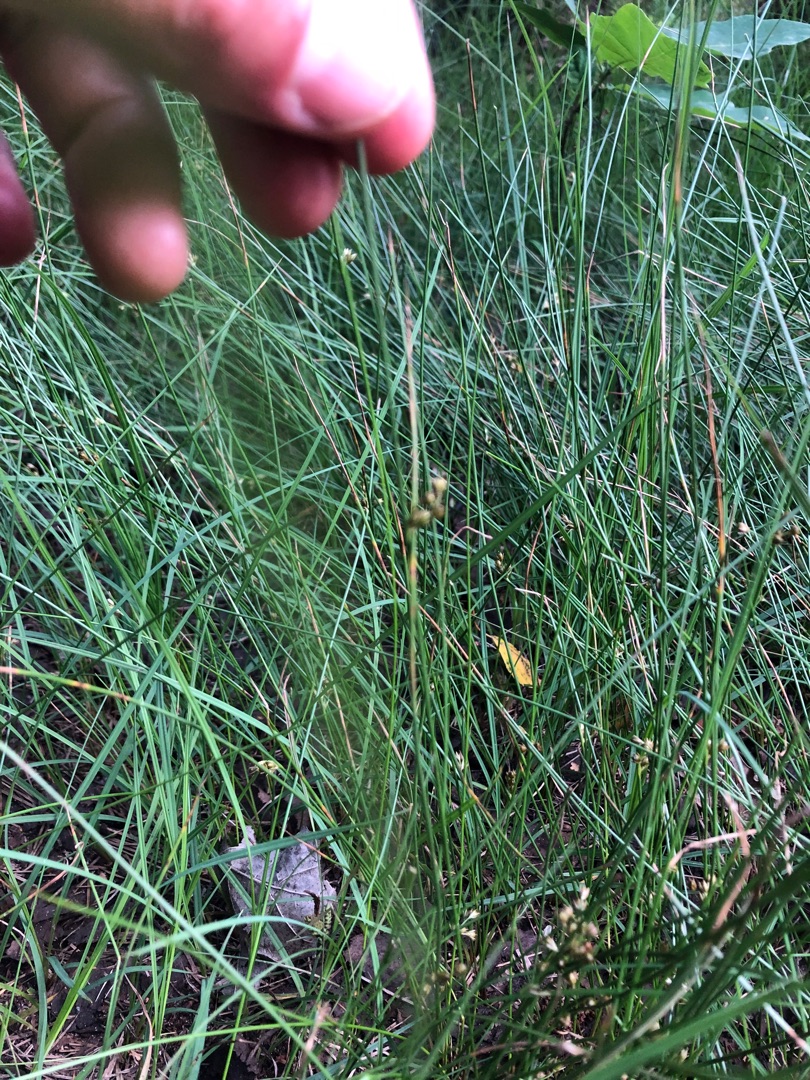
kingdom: Plantae
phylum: Tracheophyta
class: Liliopsida
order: Poales
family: Juncaceae
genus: Juncus
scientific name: Juncus filiformis
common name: Tråd-siv
